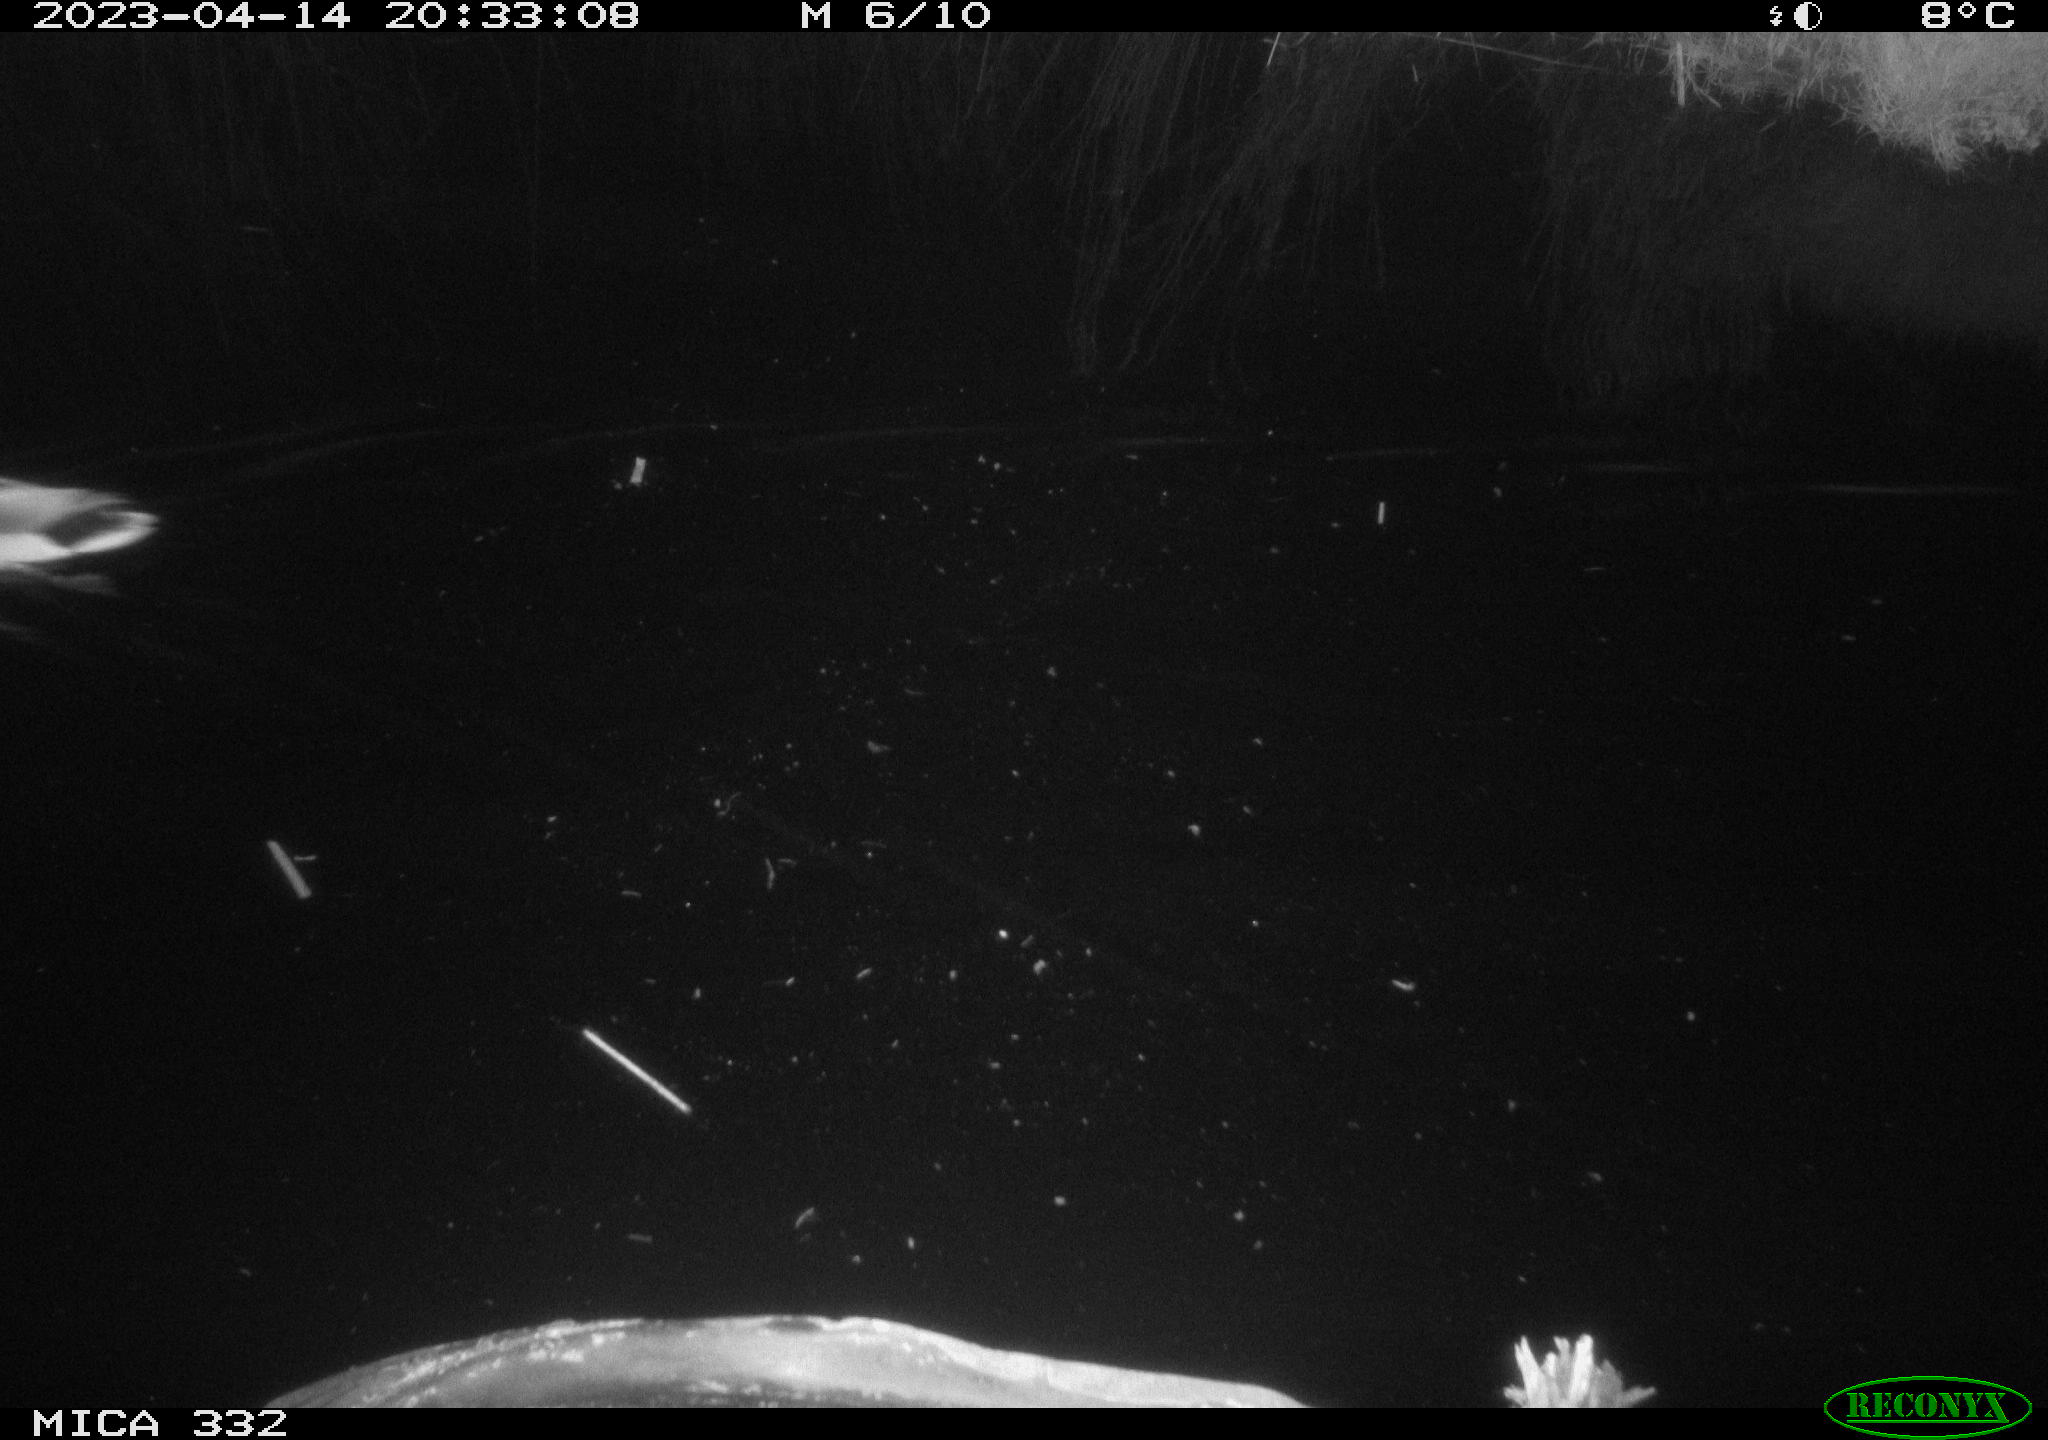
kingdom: Animalia
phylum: Chordata
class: Aves
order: Anseriformes
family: Anatidae
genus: Anas
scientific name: Anas
